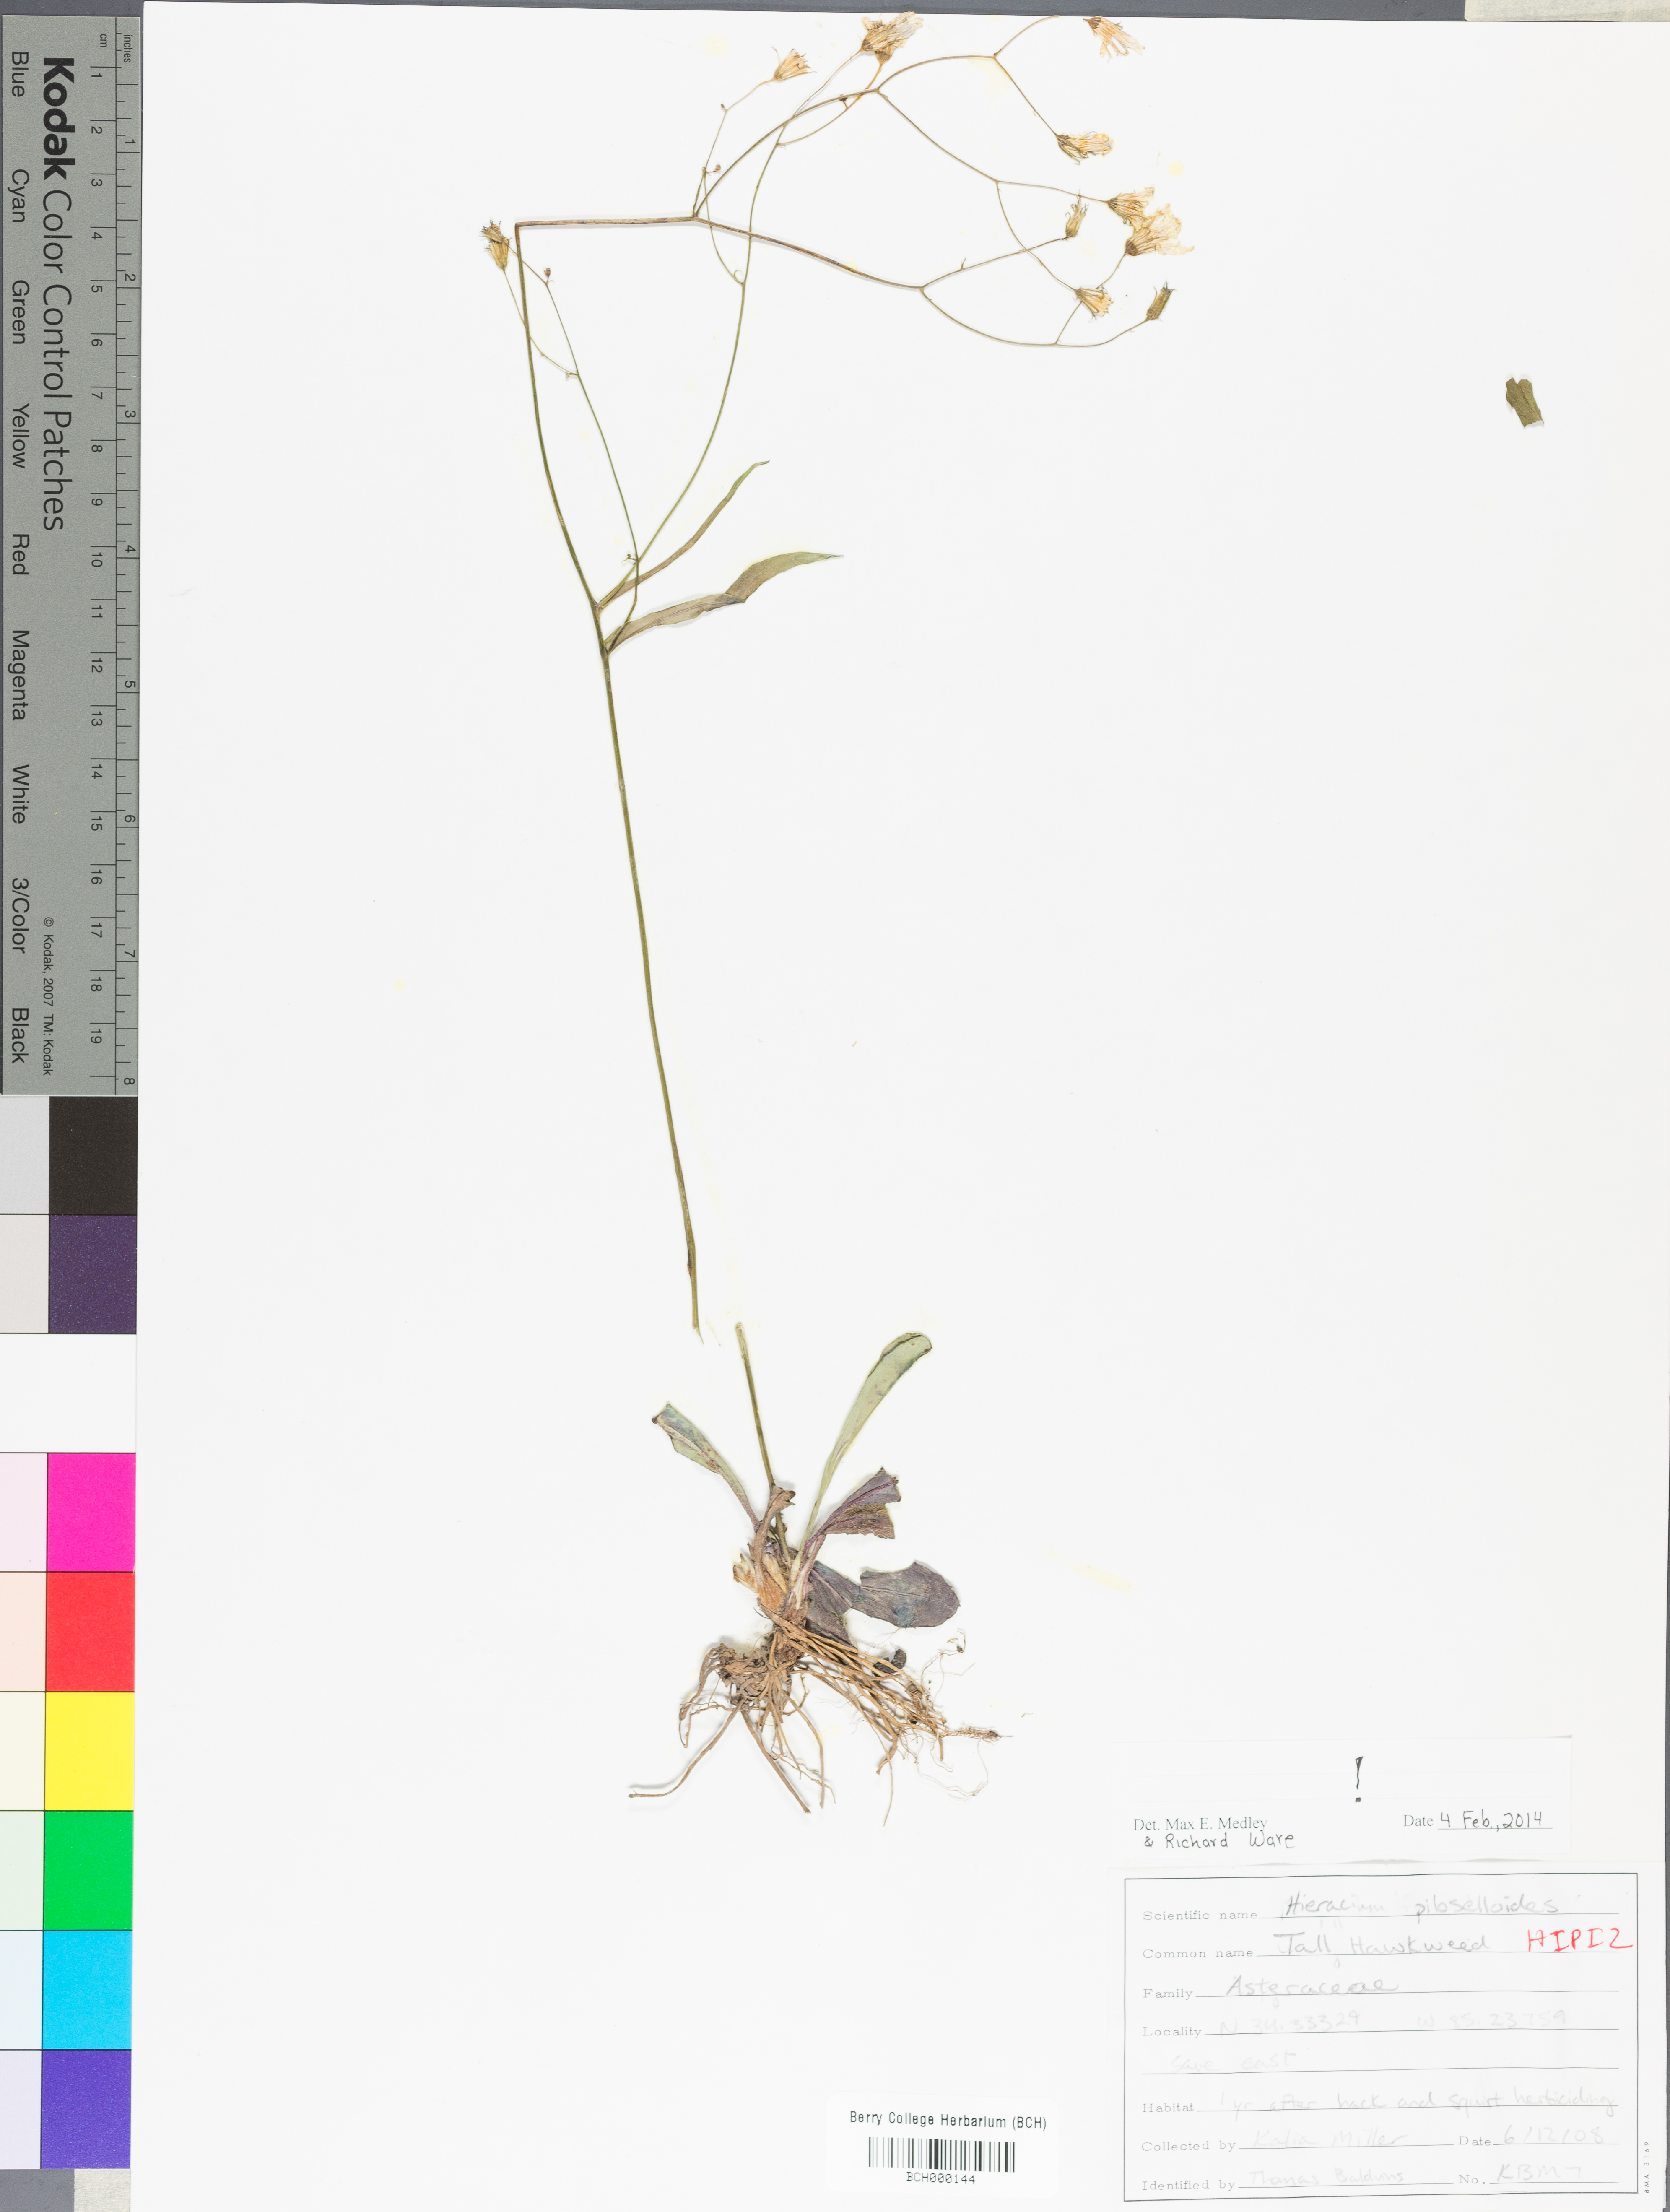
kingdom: Plantae
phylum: Tracheophyta
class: Magnoliopsida
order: Asterales
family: Asteraceae
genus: Pilosella
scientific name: Pilosella piloselloides
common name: Glaucous king-devil
